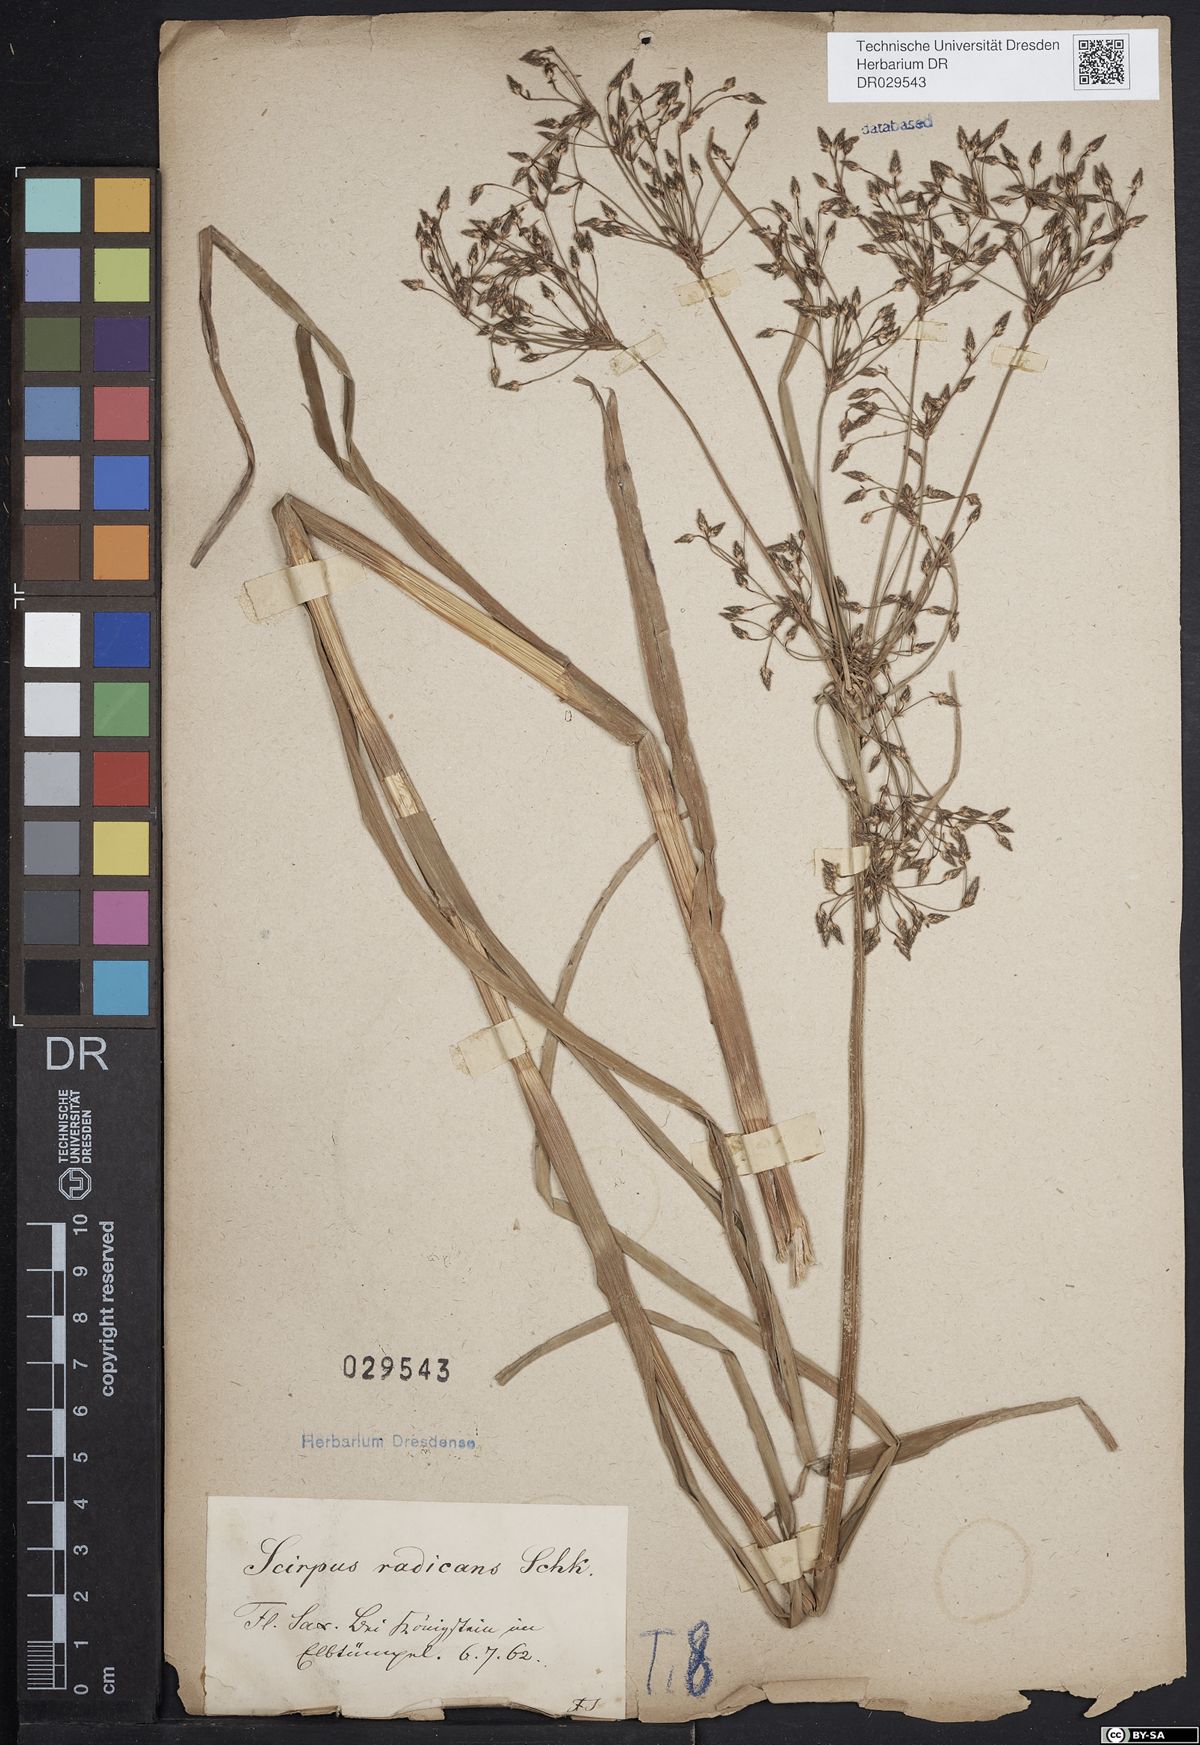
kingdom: Plantae
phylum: Tracheophyta
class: Liliopsida
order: Poales
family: Cyperaceae
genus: Scirpus
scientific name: Scirpus radicans
